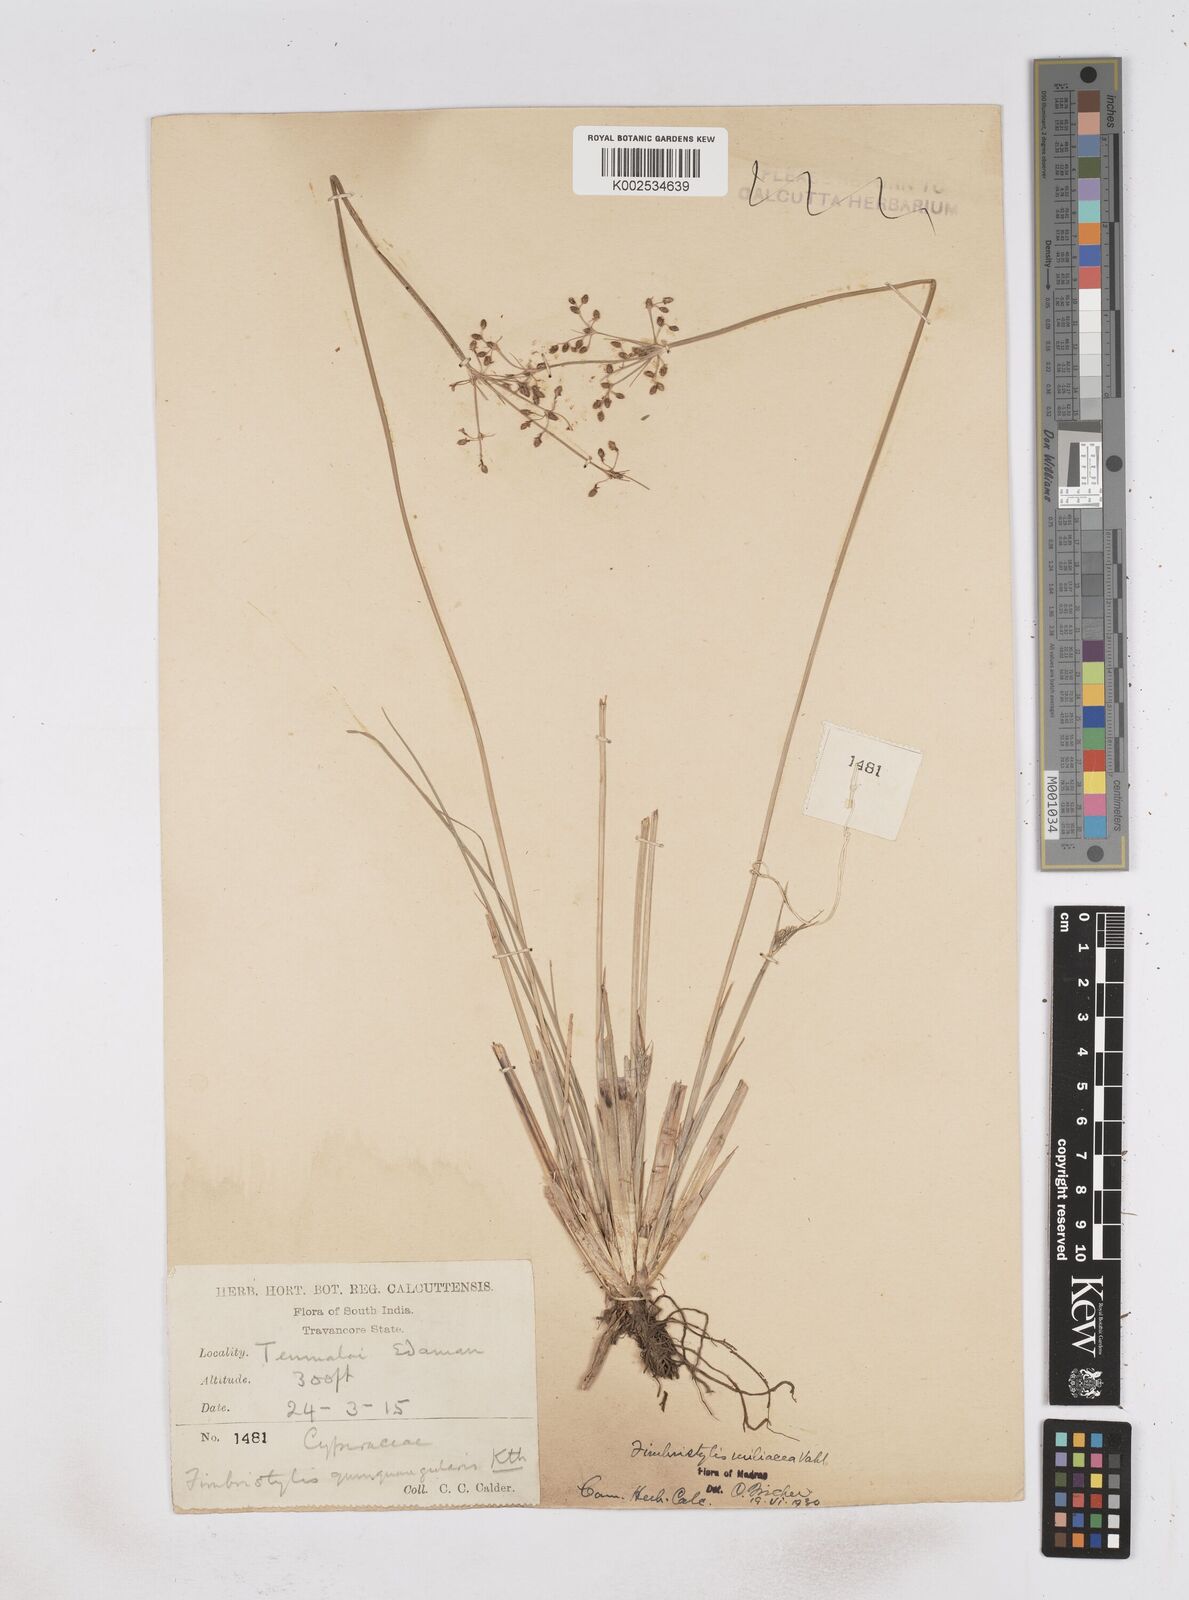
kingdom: Plantae
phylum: Tracheophyta
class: Liliopsida
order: Poales
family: Cyperaceae
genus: Fimbristylis
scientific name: Fimbristylis littoralis
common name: Fimbry
